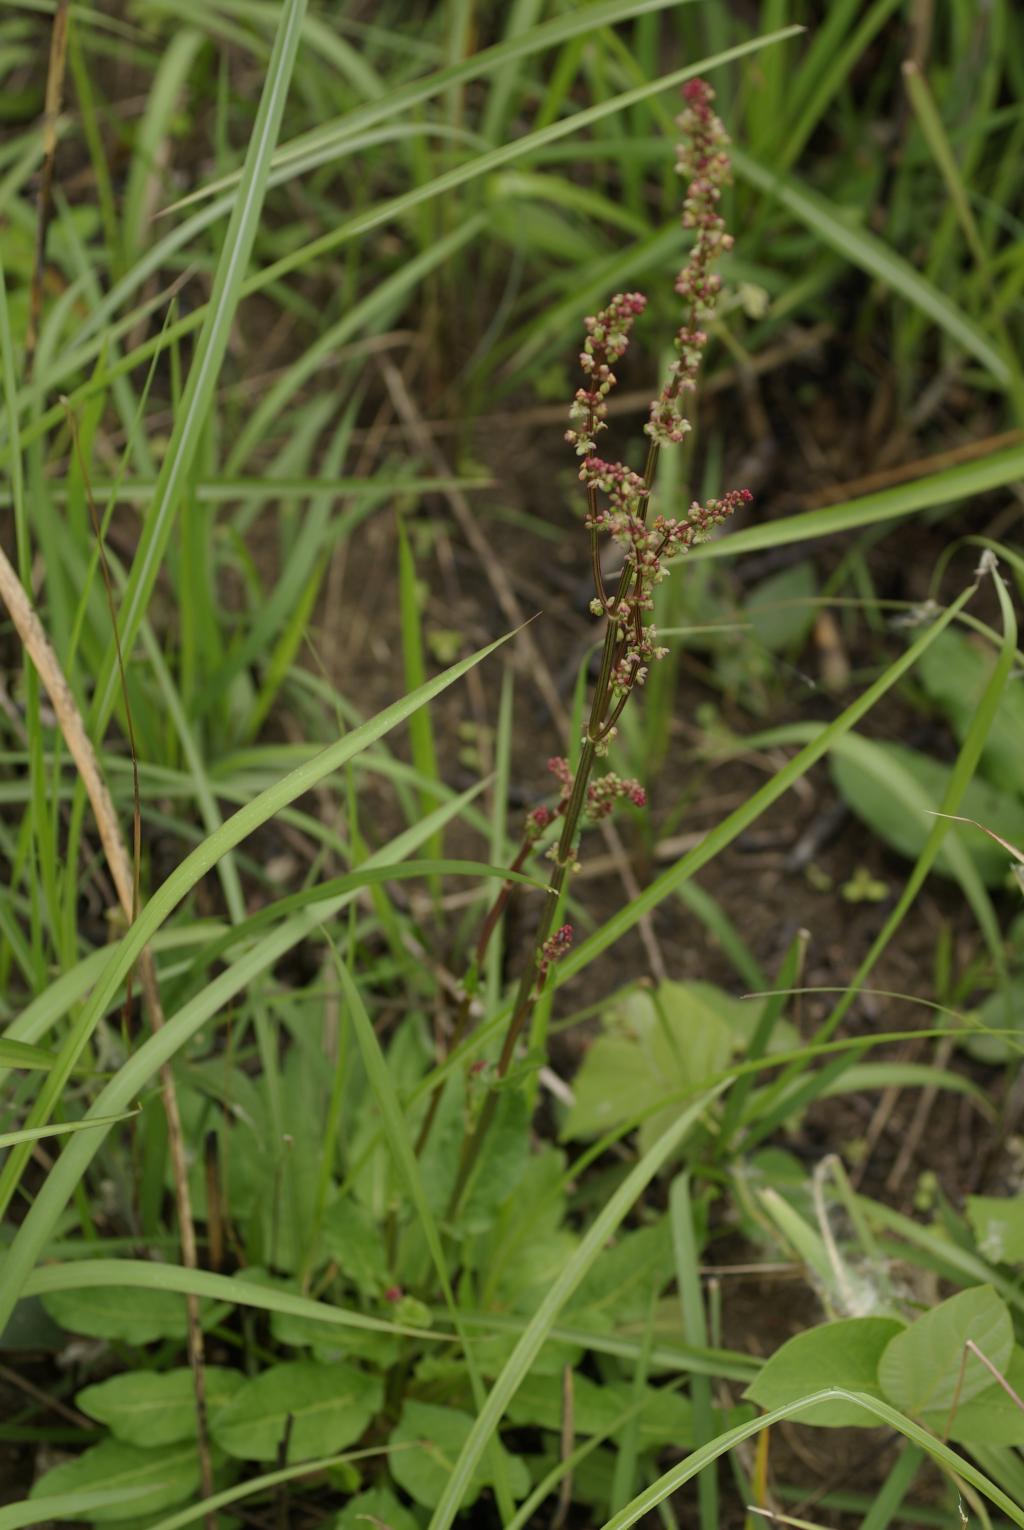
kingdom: Plantae
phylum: Tracheophyta
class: Magnoliopsida
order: Caryophyllales
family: Polygonaceae
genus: Rumex
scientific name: Rumex acetosa
